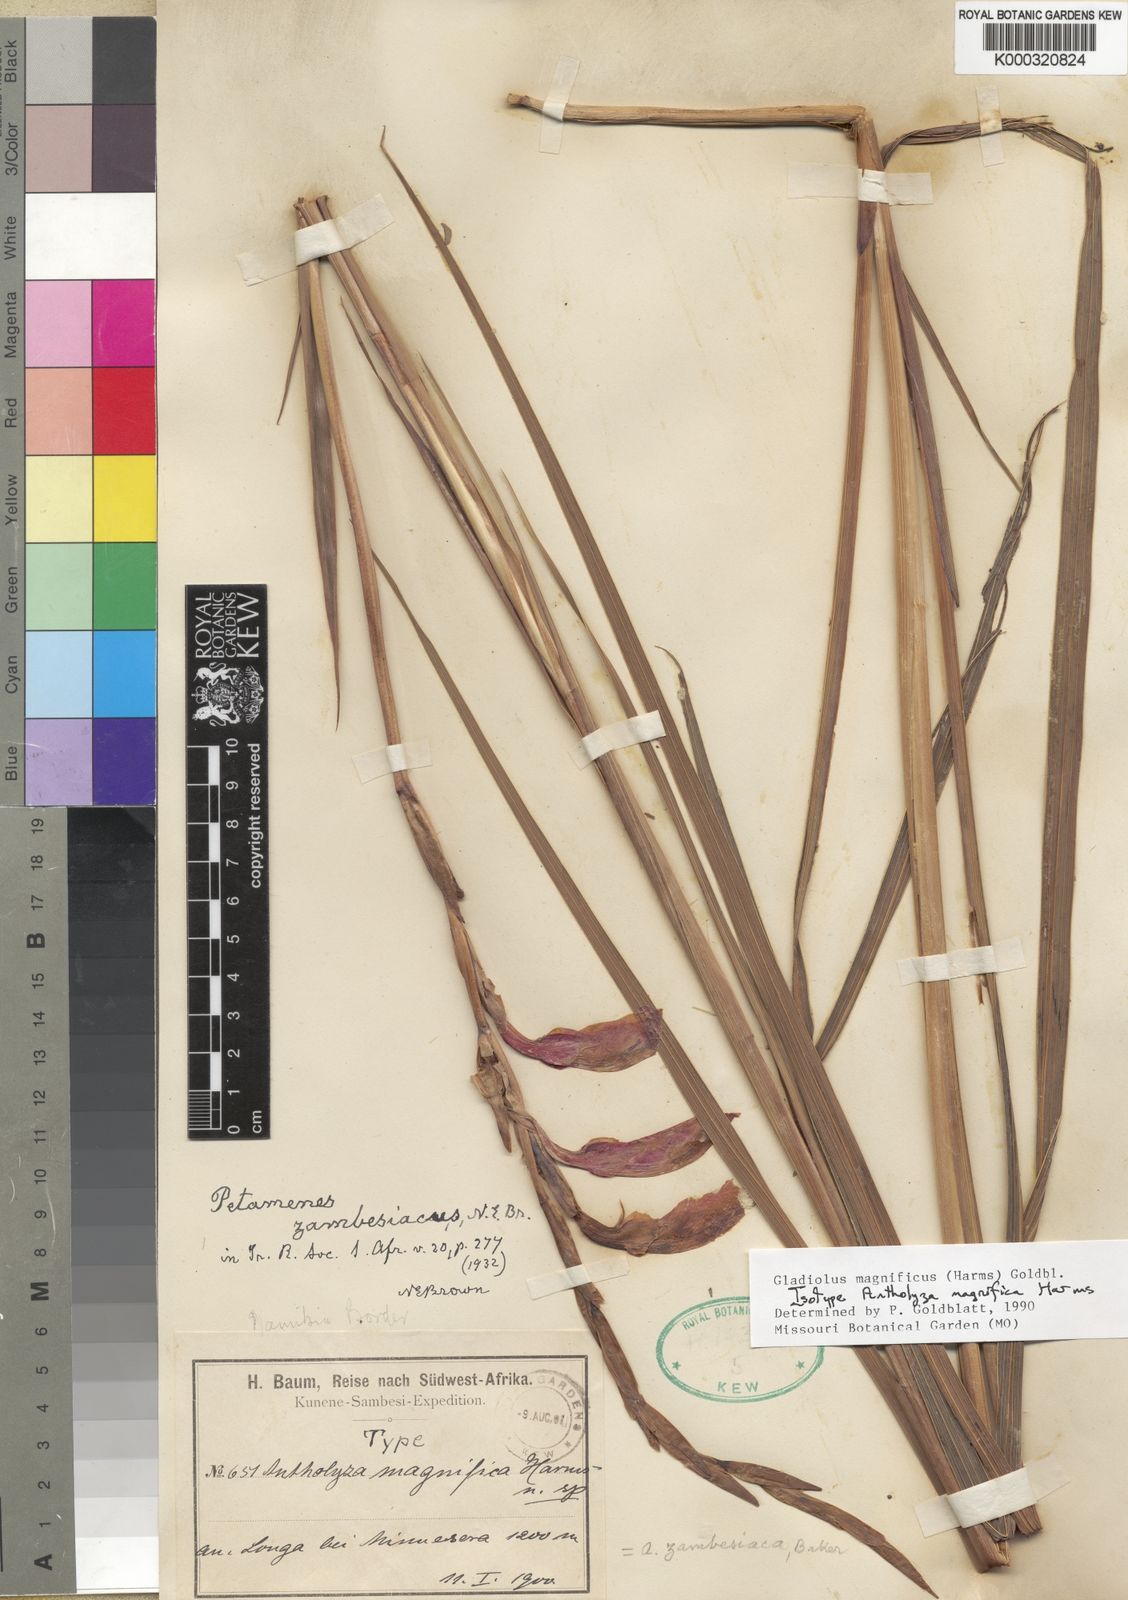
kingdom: Plantae
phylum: Tracheophyta
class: Liliopsida
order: Asparagales
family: Iridaceae
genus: Gladiolus
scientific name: Gladiolus magnificus
